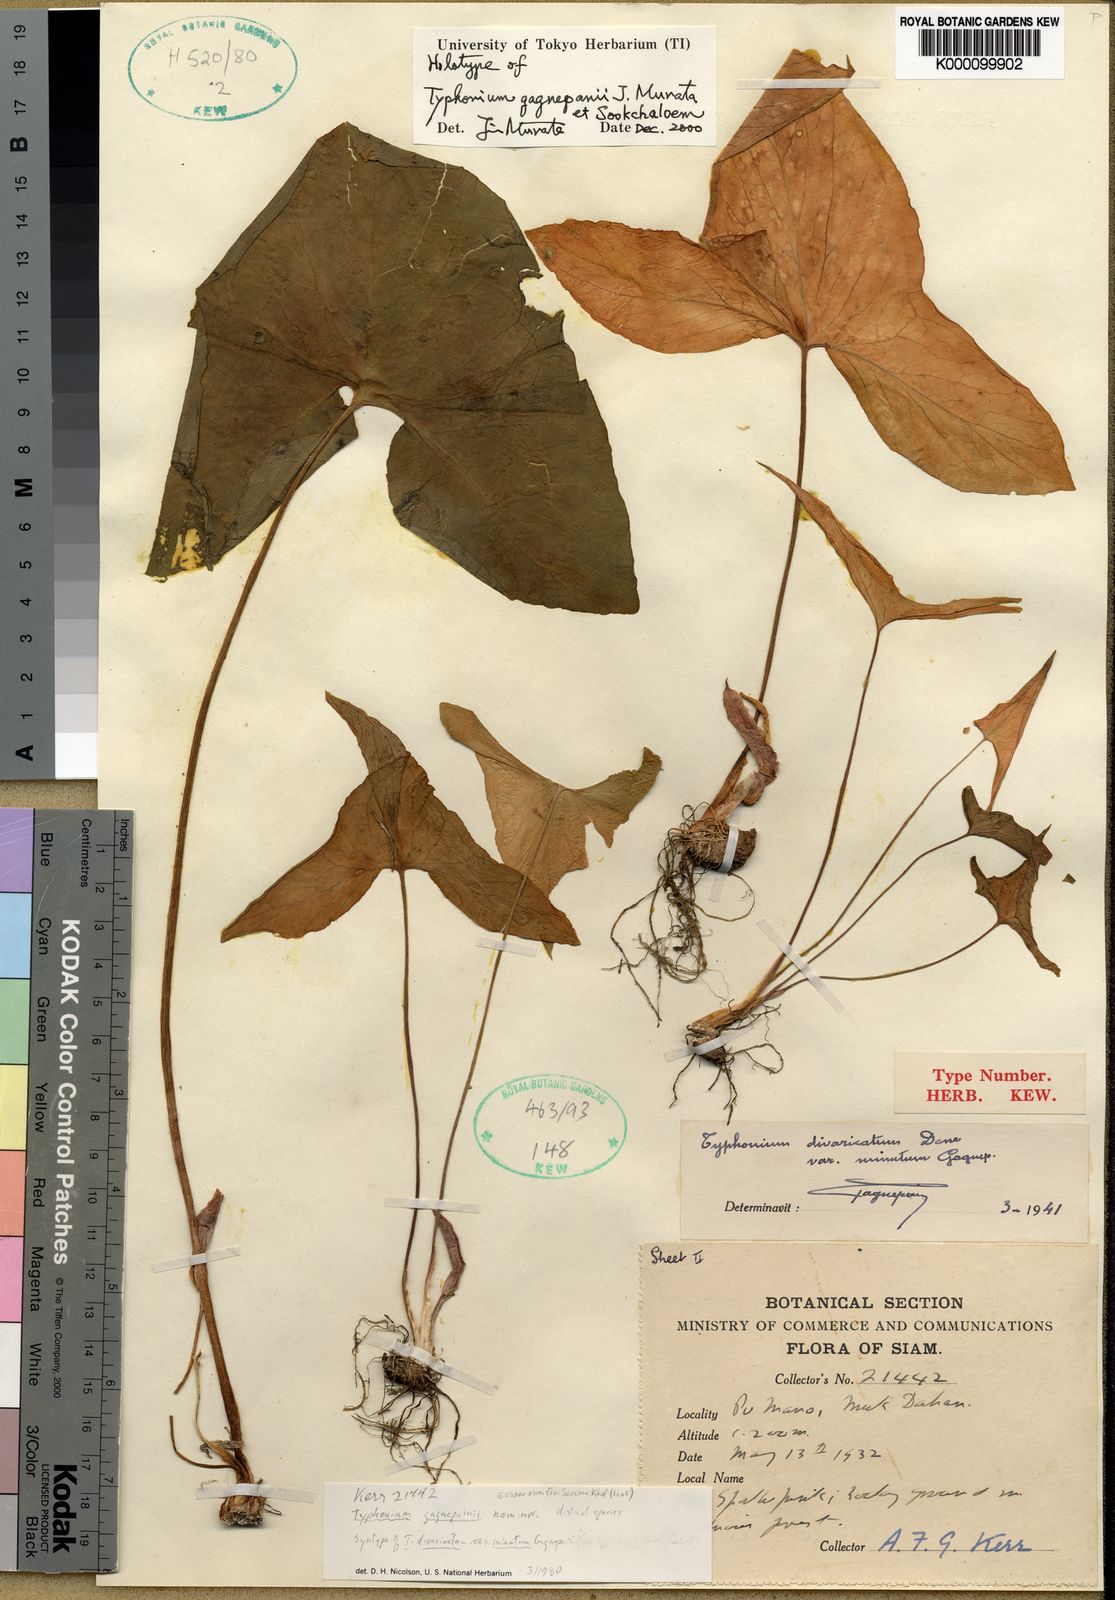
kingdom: Plantae
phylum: Tracheophyta
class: Liliopsida
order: Alismatales
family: Araceae
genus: Typhonium
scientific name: Typhonium gagnepainii
